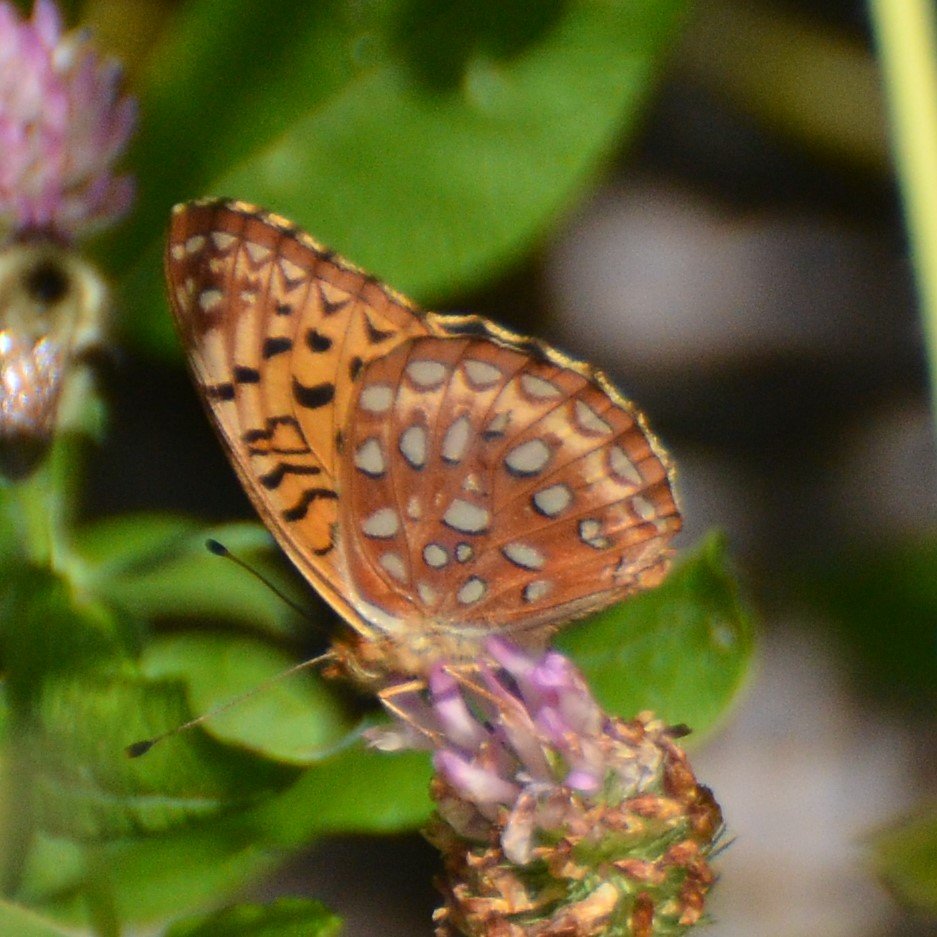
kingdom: Animalia
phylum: Arthropoda
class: Insecta
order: Lepidoptera
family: Nymphalidae
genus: Speyeria
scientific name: Speyeria aphrodite
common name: Aphrodite Fritillary
